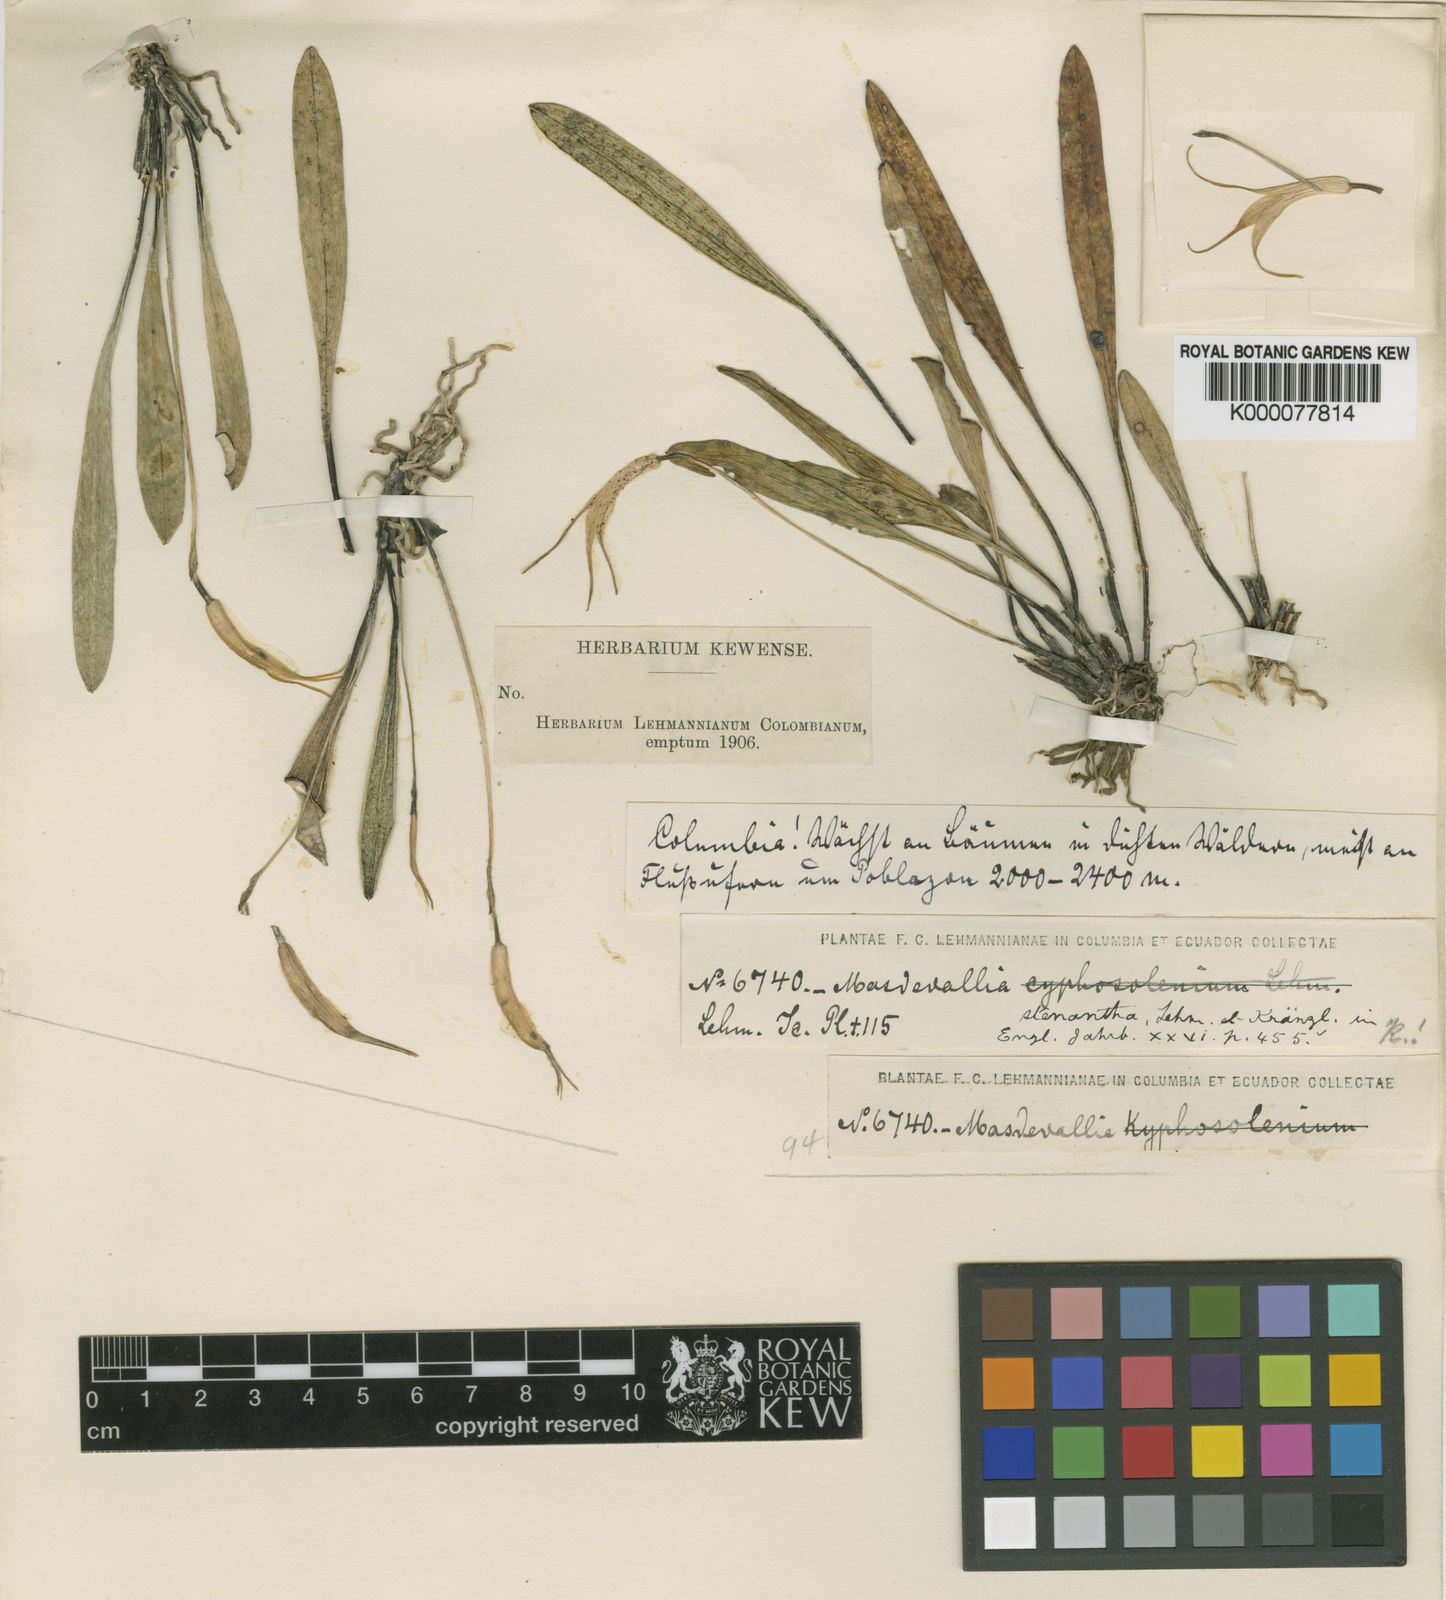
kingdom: Plantae
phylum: Tracheophyta
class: Liliopsida
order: Asparagales
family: Orchidaceae
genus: Masdevallia
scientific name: Masdevallia tubulosa
